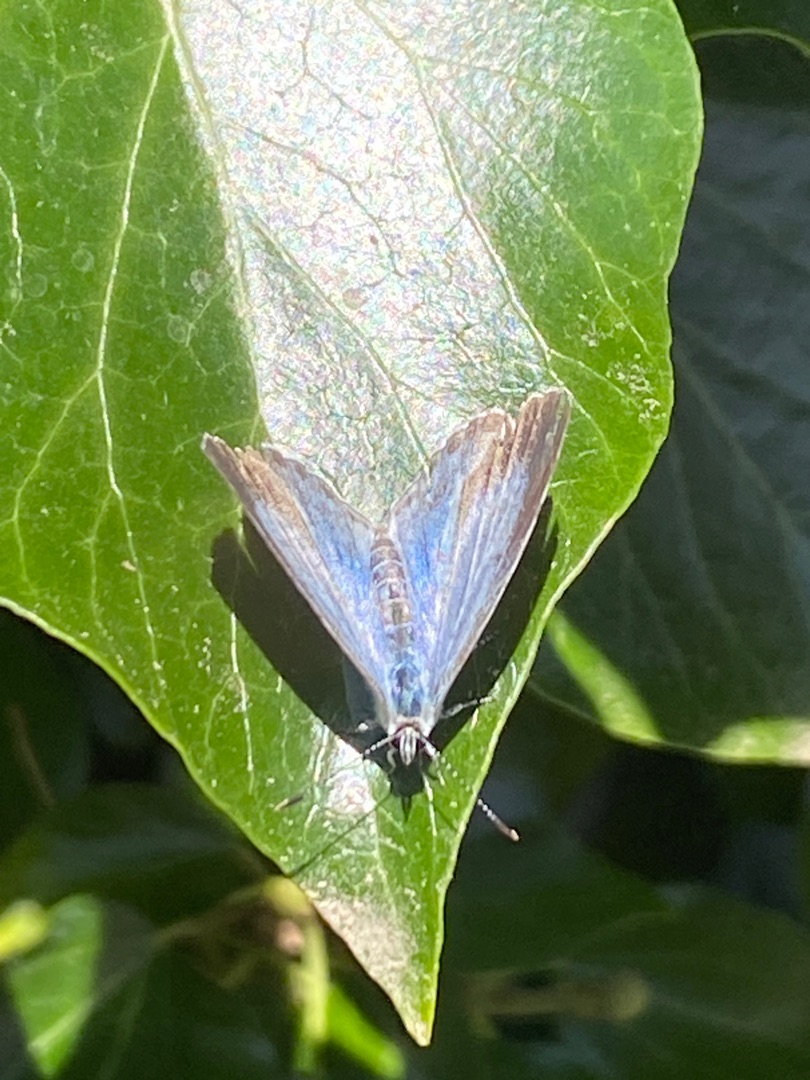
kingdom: Animalia
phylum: Arthropoda
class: Insecta
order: Lepidoptera
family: Lycaenidae
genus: Celastrina
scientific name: Celastrina argiolus
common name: Skovblåfugl
